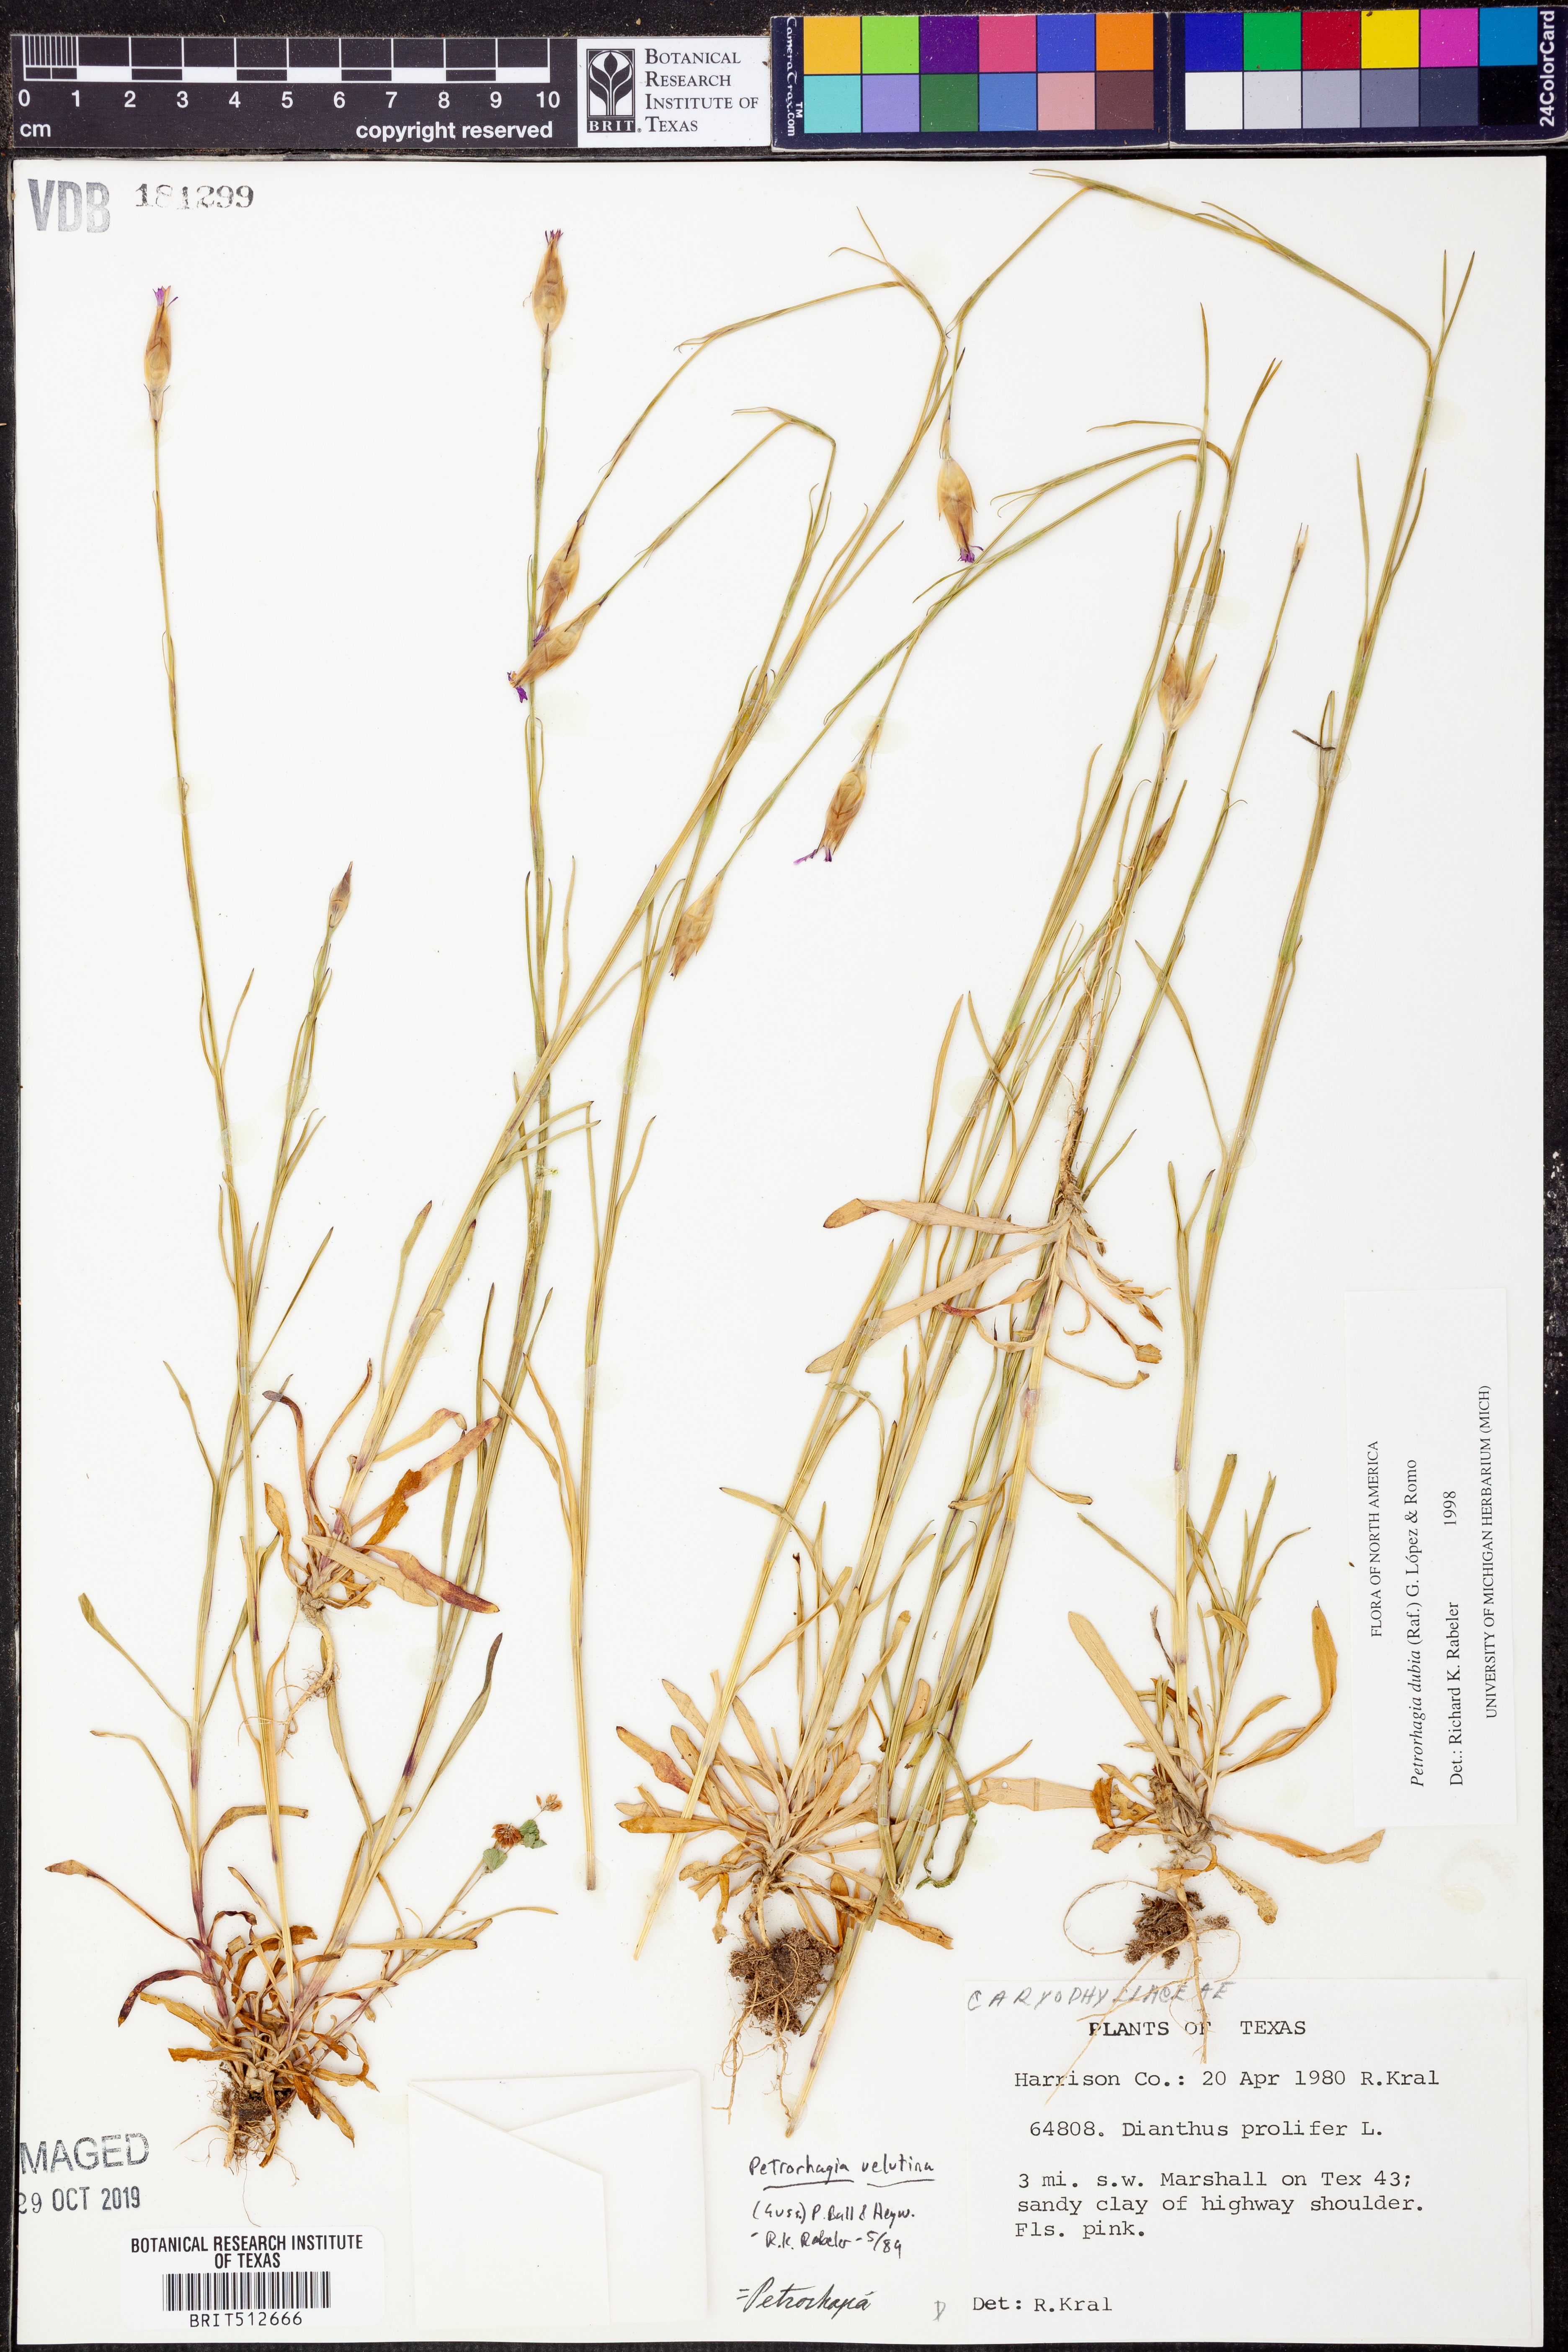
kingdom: Plantae
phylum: Tracheophyta
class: Magnoliopsida
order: Caryophyllales
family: Caryophyllaceae
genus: Petrorhagia
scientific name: Petrorhagia dubia
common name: Hairypink
